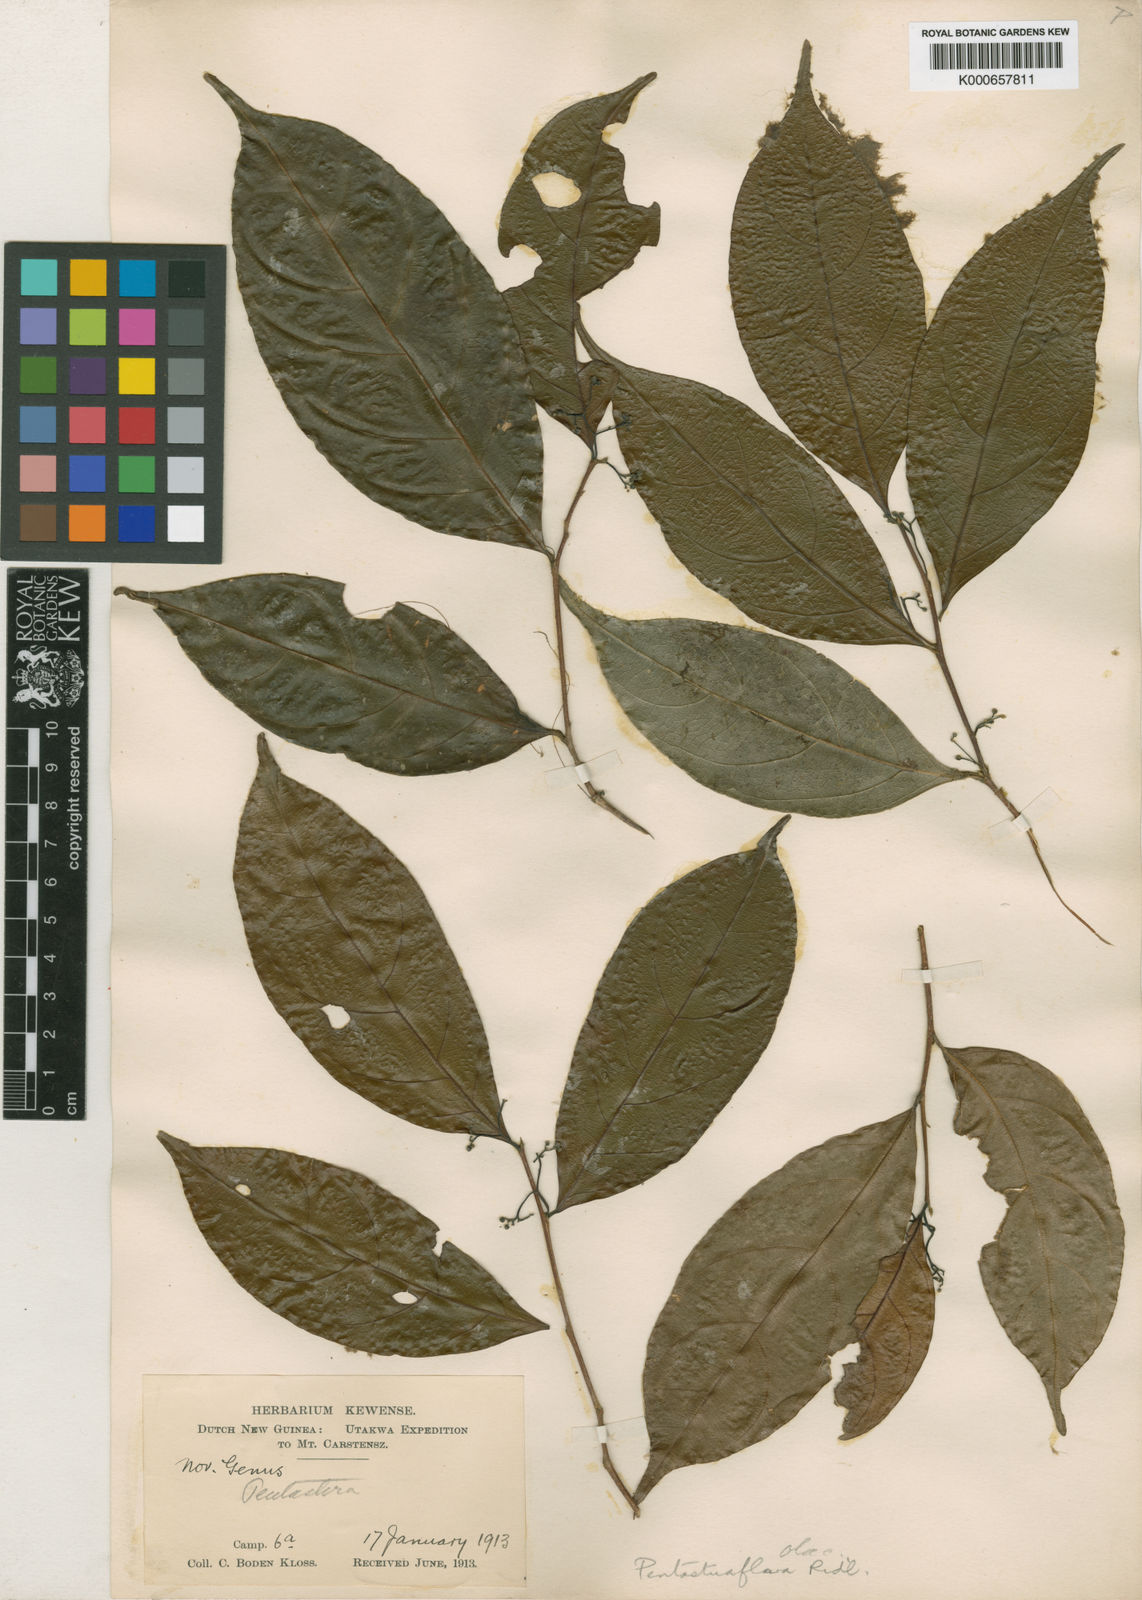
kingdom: Plantae
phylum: Tracheophyta
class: Magnoliopsida
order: Malpighiales
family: Dichapetalaceae
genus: Dichapetalum
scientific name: Dichapetalum papuanum
